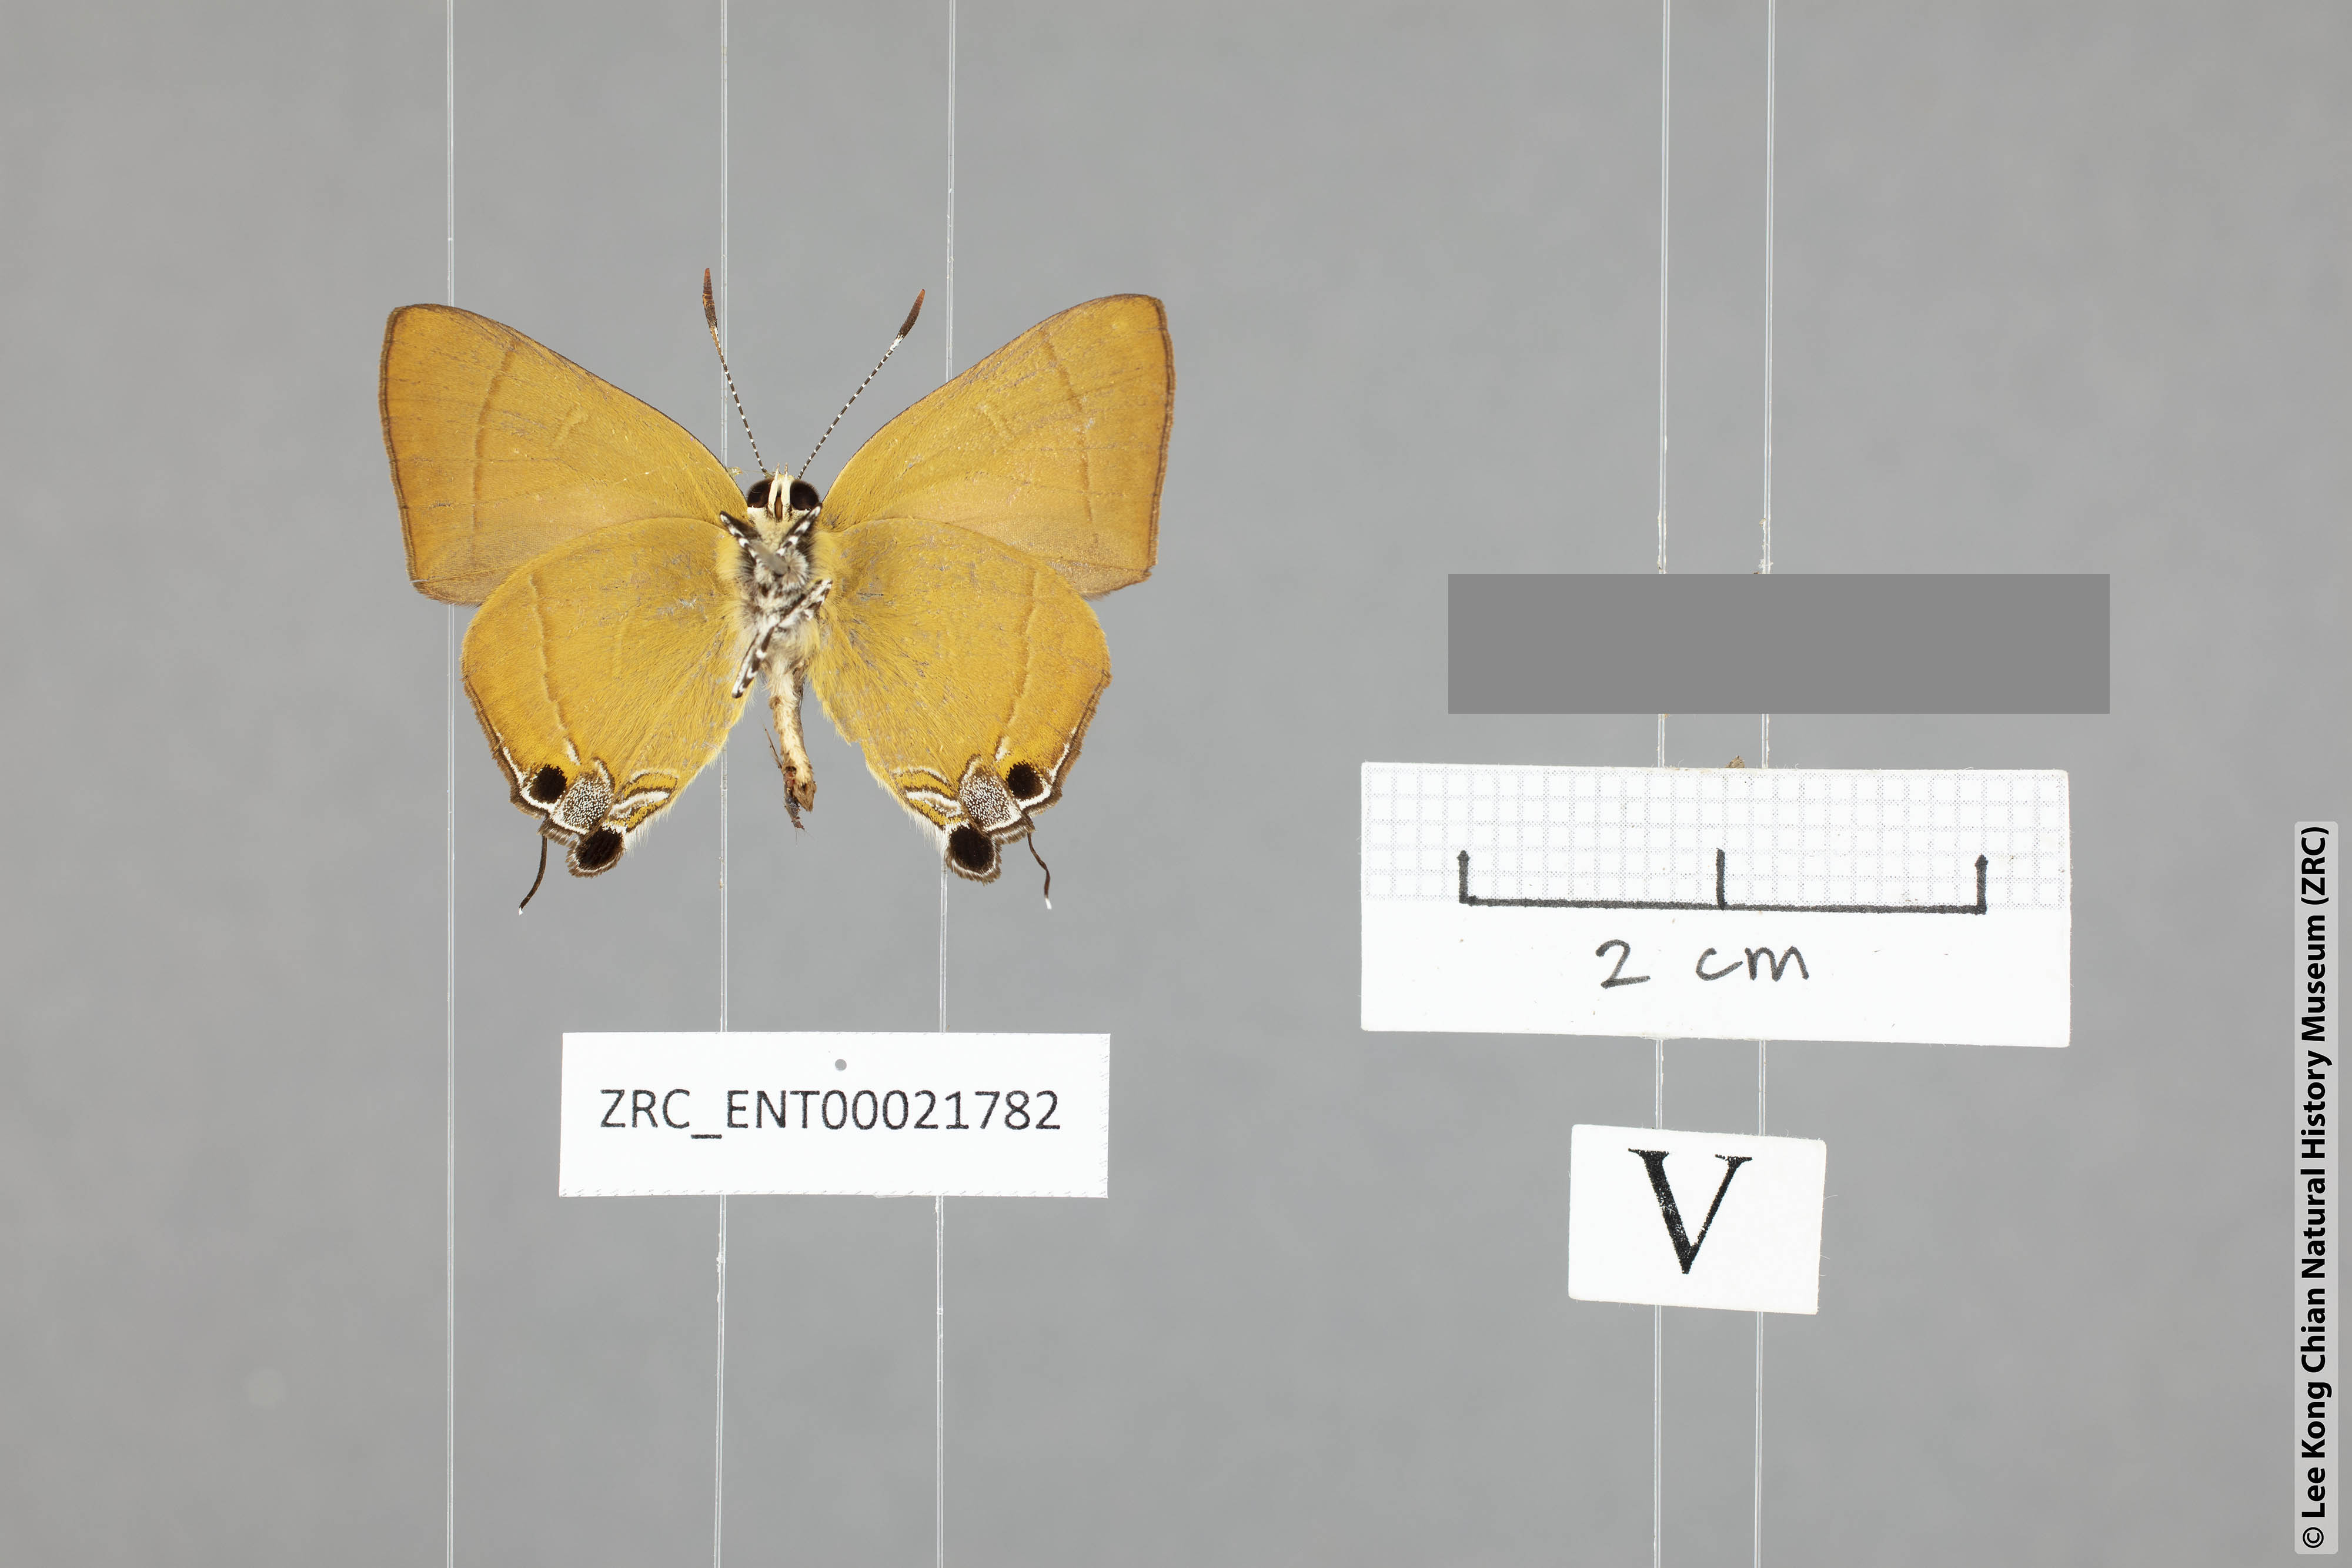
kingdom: Animalia
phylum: Arthropoda
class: Insecta
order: Lepidoptera
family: Lycaenidae
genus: Rapala
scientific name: Rapala damona
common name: Malay red flash
